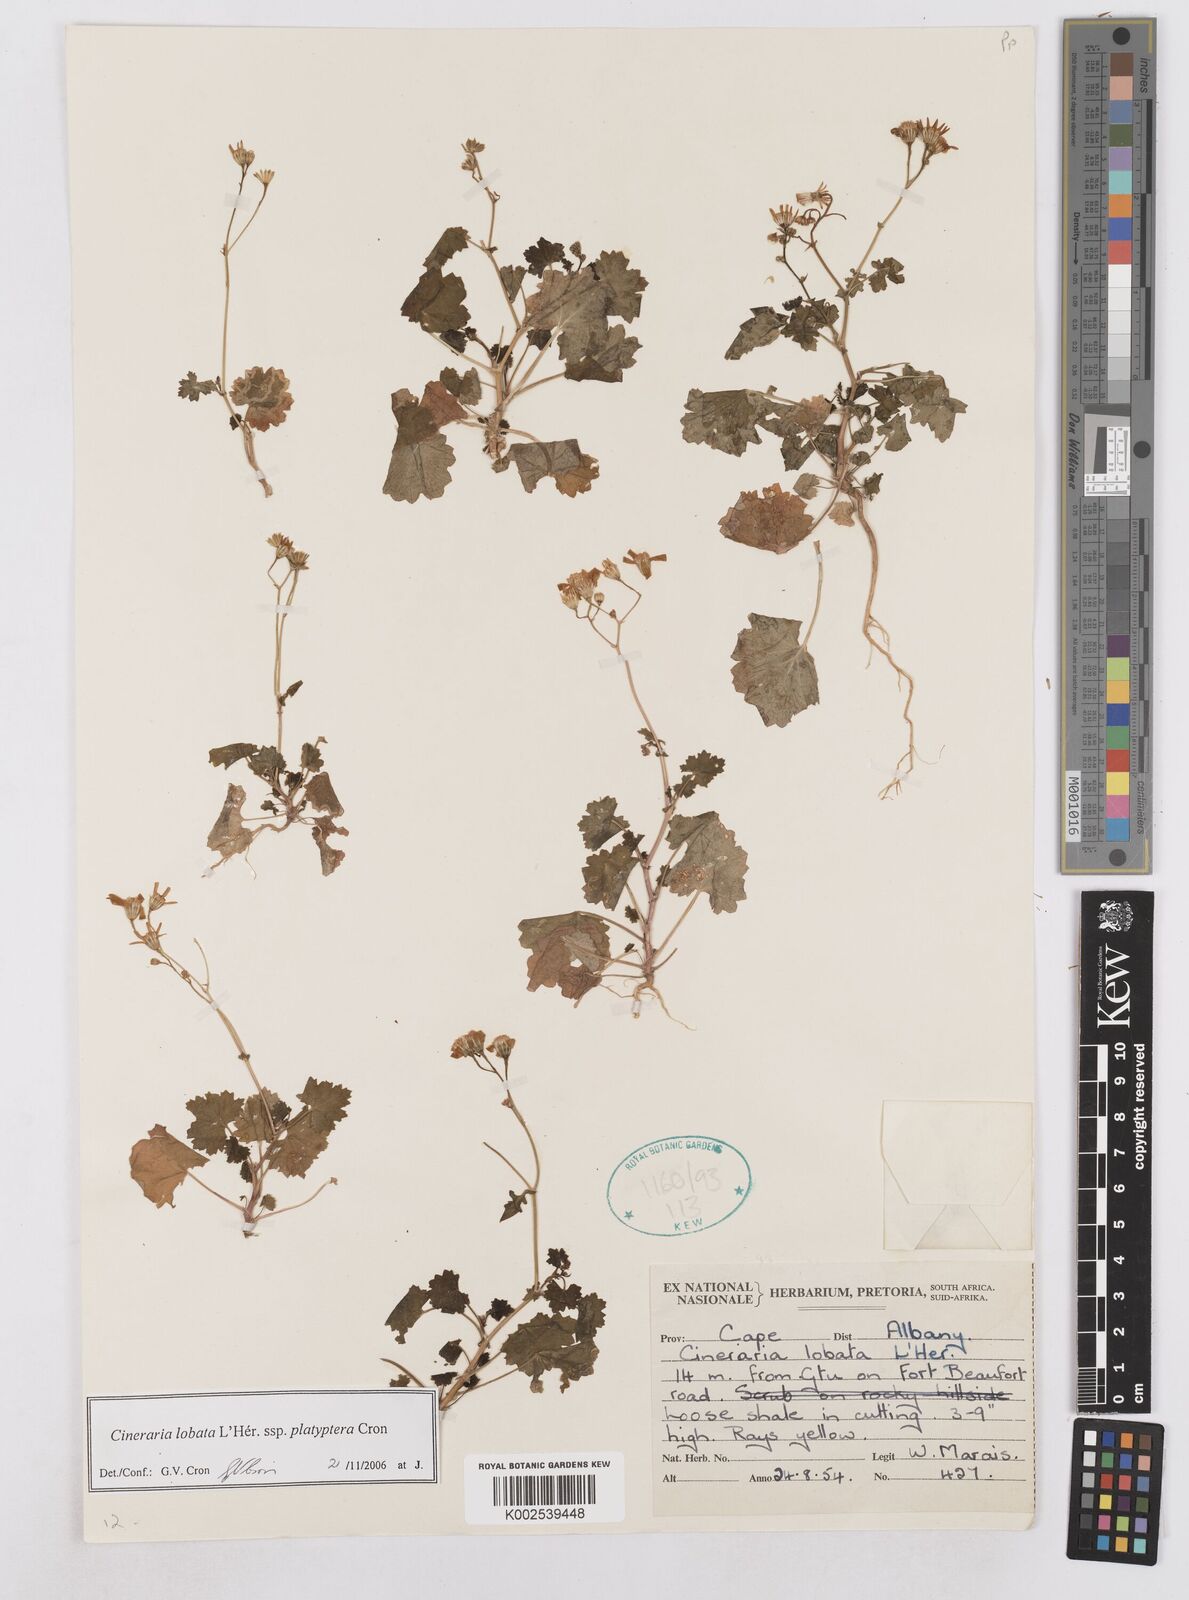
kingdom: Plantae
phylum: Tracheophyta
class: Magnoliopsida
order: Asterales
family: Asteraceae
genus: Cineraria
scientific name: Cineraria lobata
